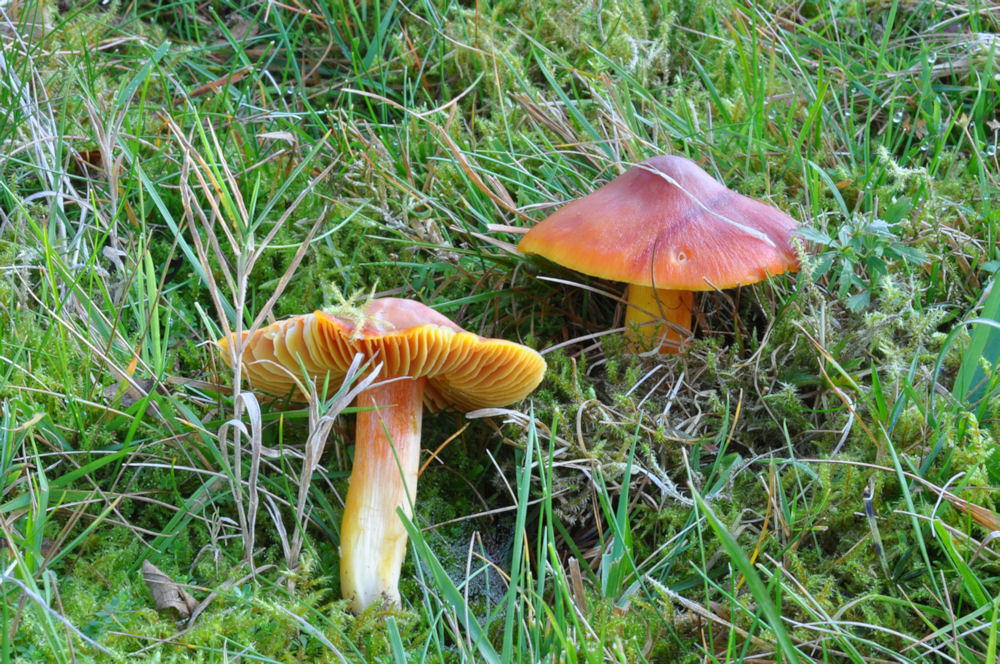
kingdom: Fungi
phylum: Basidiomycota
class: Agaricomycetes
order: Agaricales
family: Hygrophoraceae
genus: Hygrocybe
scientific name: Hygrocybe punicea
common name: skarlagen-vokshat
